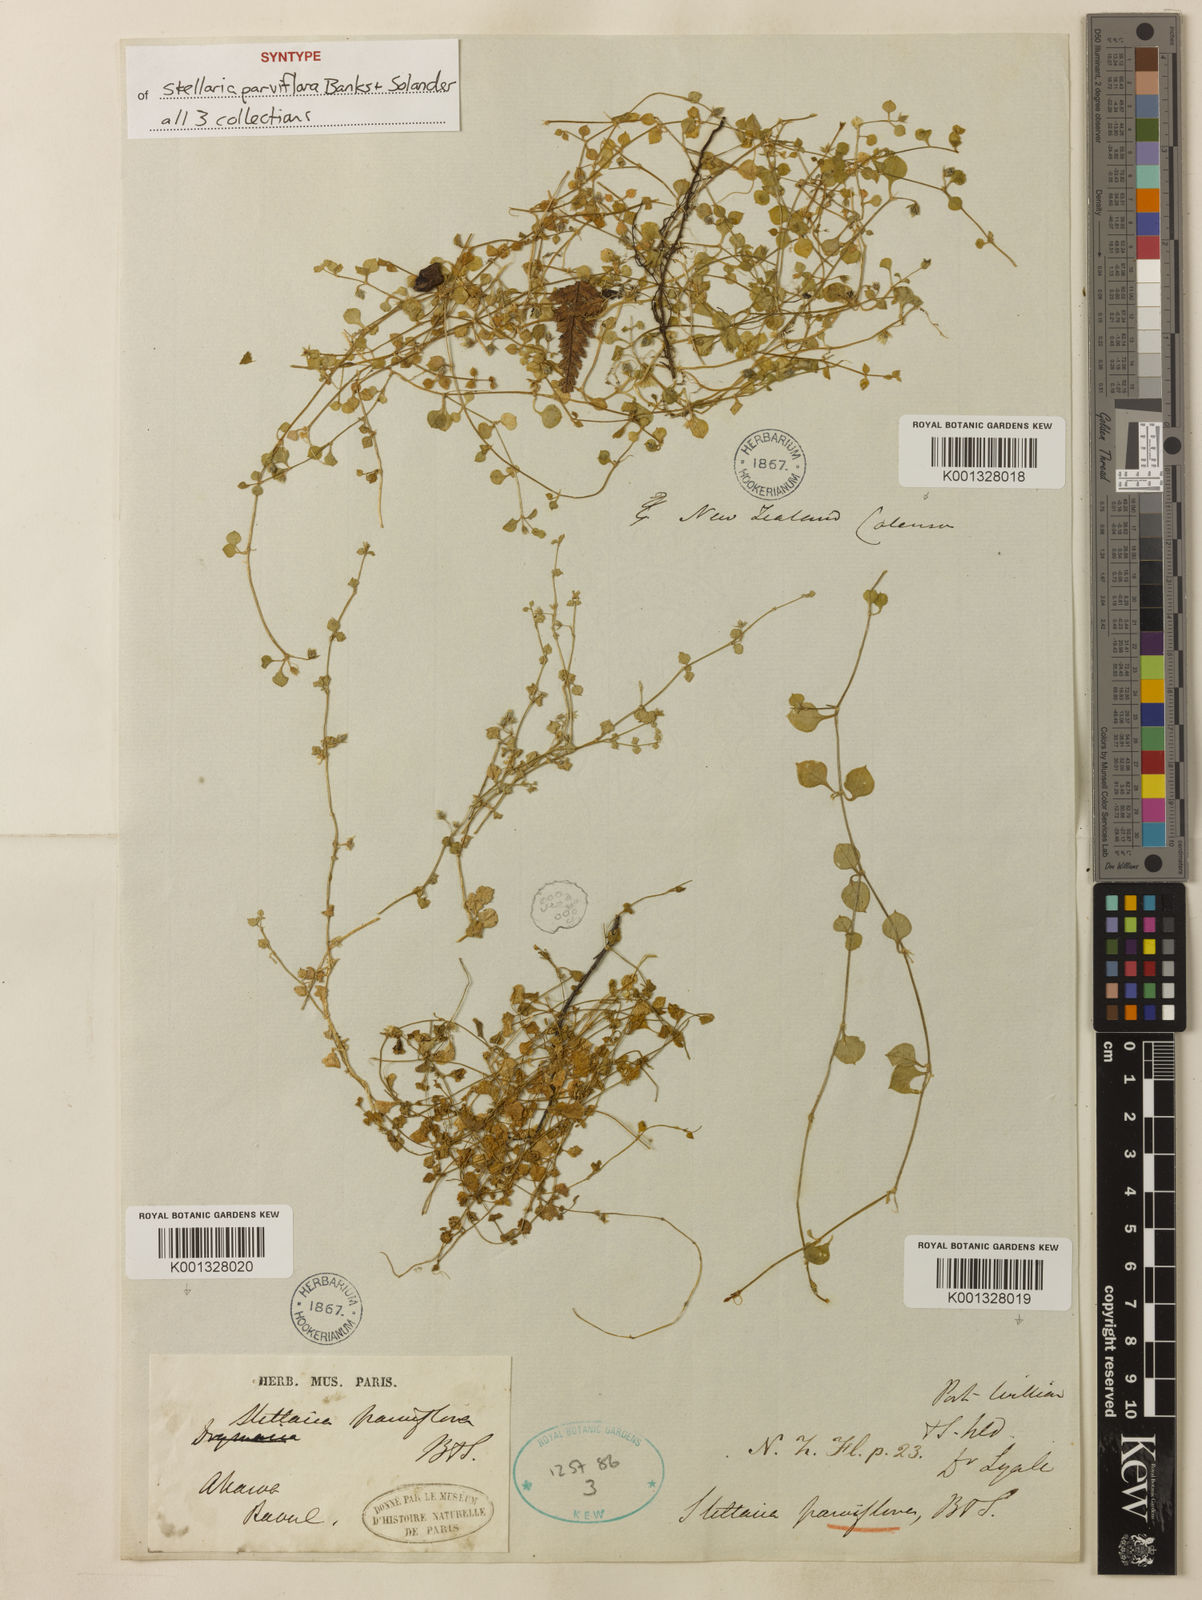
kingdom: Plantae
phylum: Tracheophyta
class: Magnoliopsida
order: Caryophyllales
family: Caryophyllaceae
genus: Stellaria
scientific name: Stellaria parviflora
